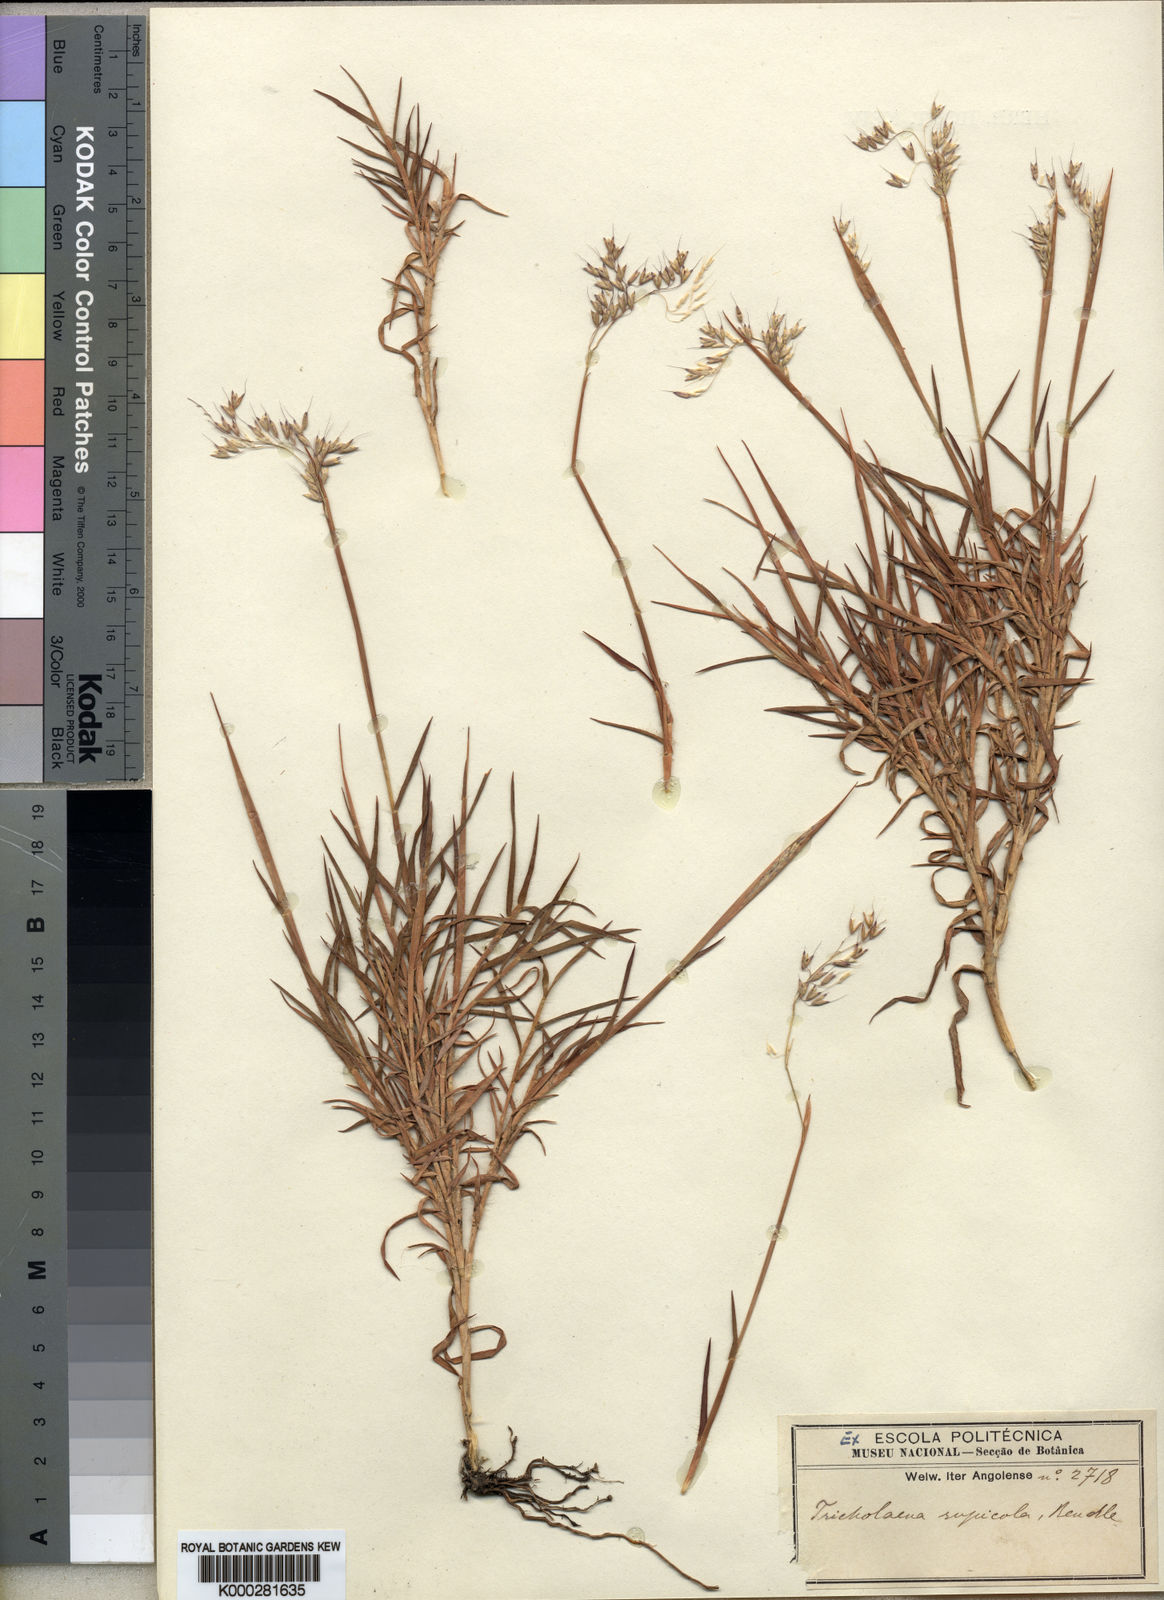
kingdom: Plantae
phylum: Tracheophyta
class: Liliopsida
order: Poales
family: Poaceae
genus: Melinis
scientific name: Melinis rupicola
